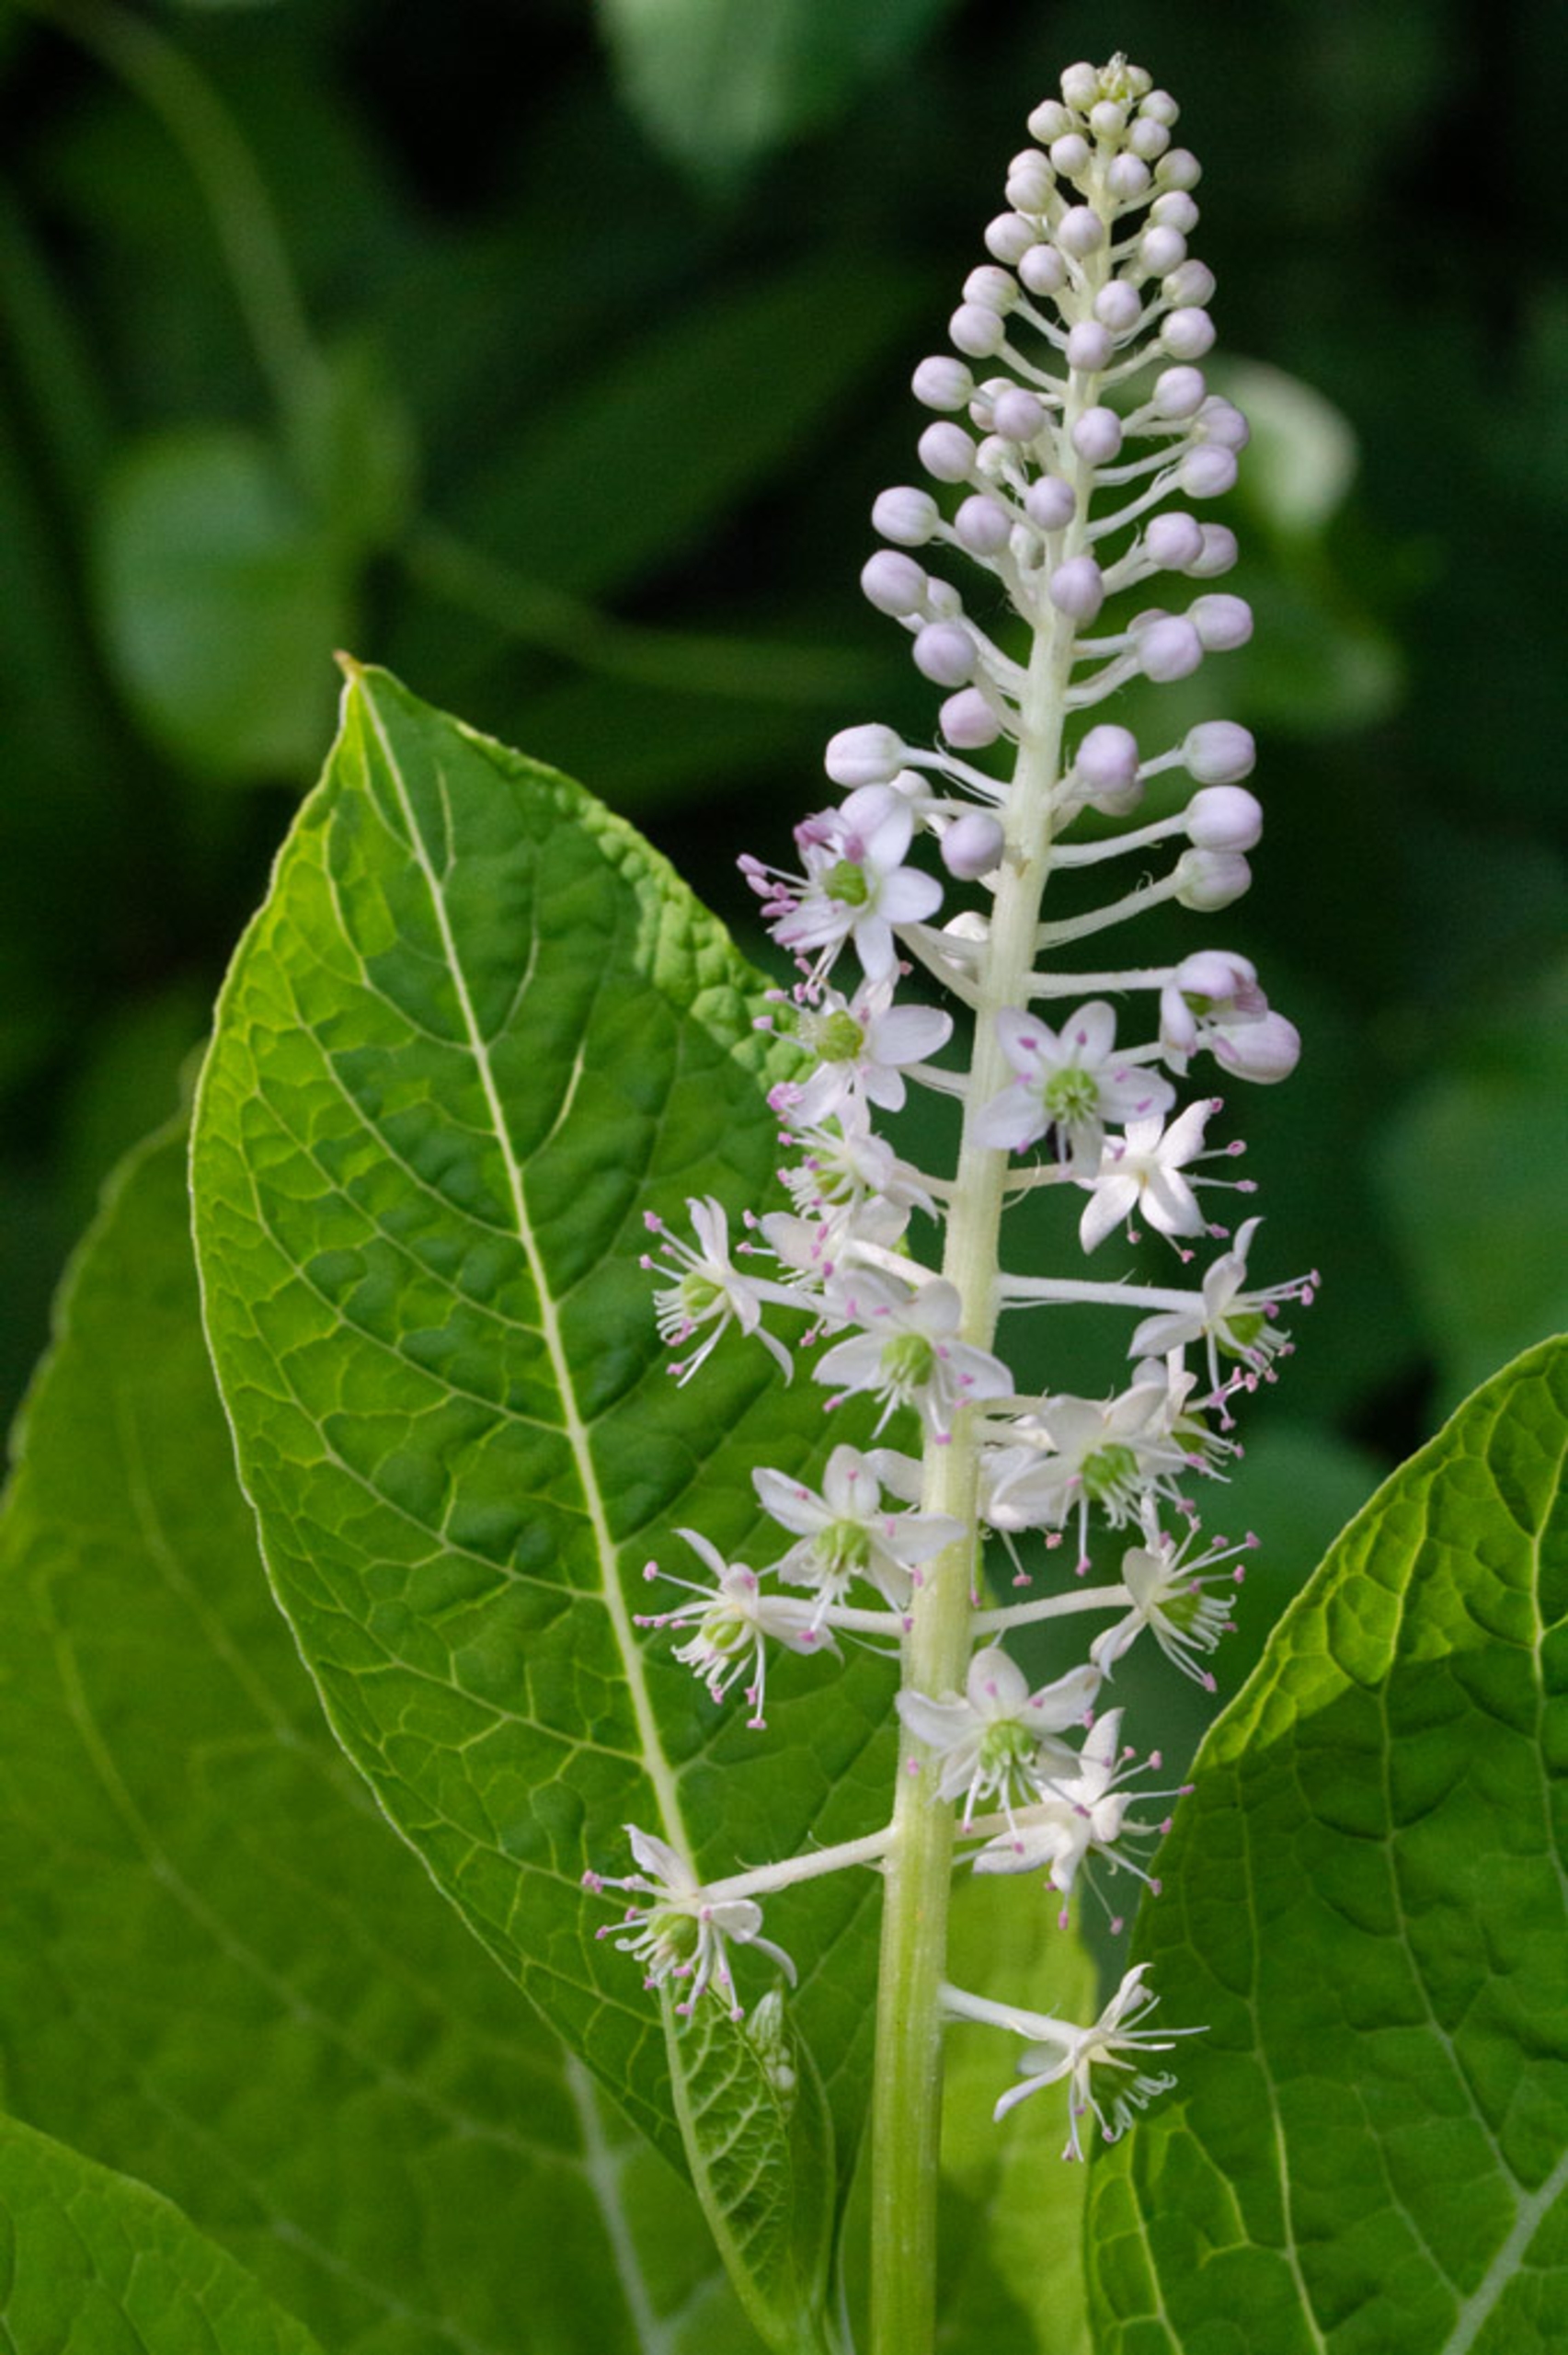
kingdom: Plantae
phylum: Tracheophyta
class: Magnoliopsida
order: Caryophyllales
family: Phytolaccaceae
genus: Phytolacca
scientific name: Phytolacca acinosa
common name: Asiatisk kermesbær
